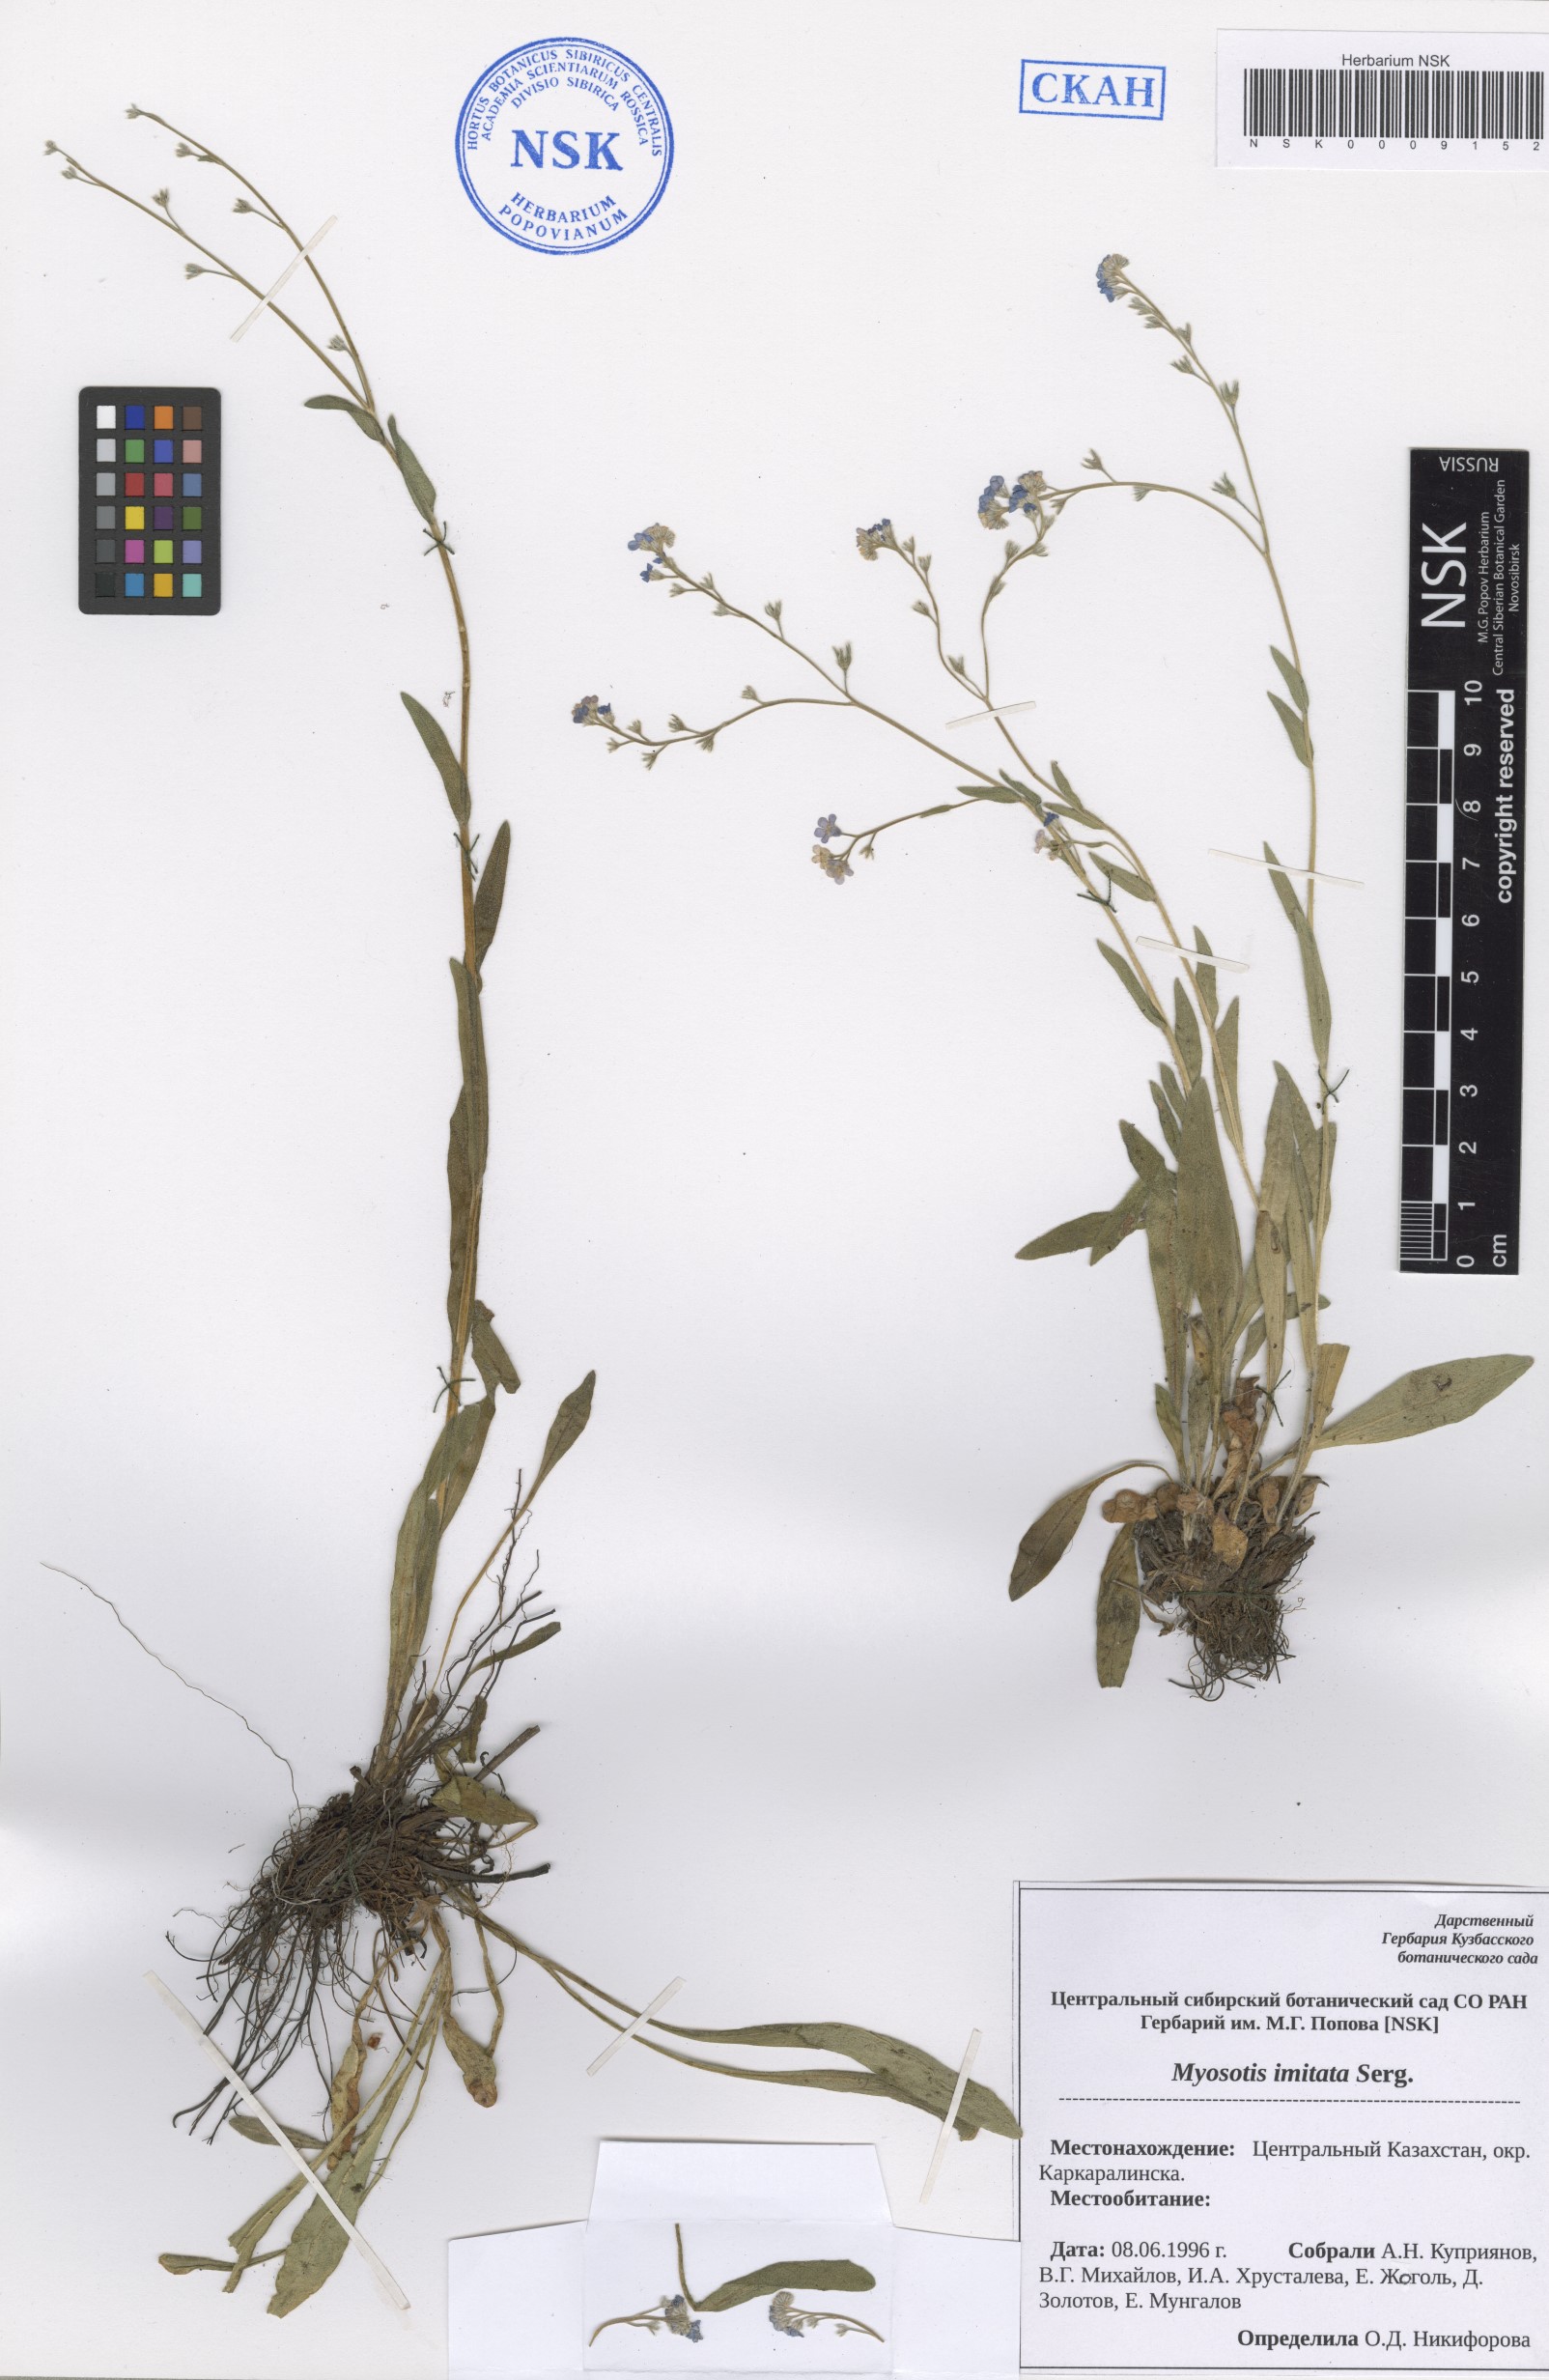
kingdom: Plantae
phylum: Tracheophyta
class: Magnoliopsida
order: Boraginales
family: Boraginaceae
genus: Myosotis
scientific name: Myosotis imitata
